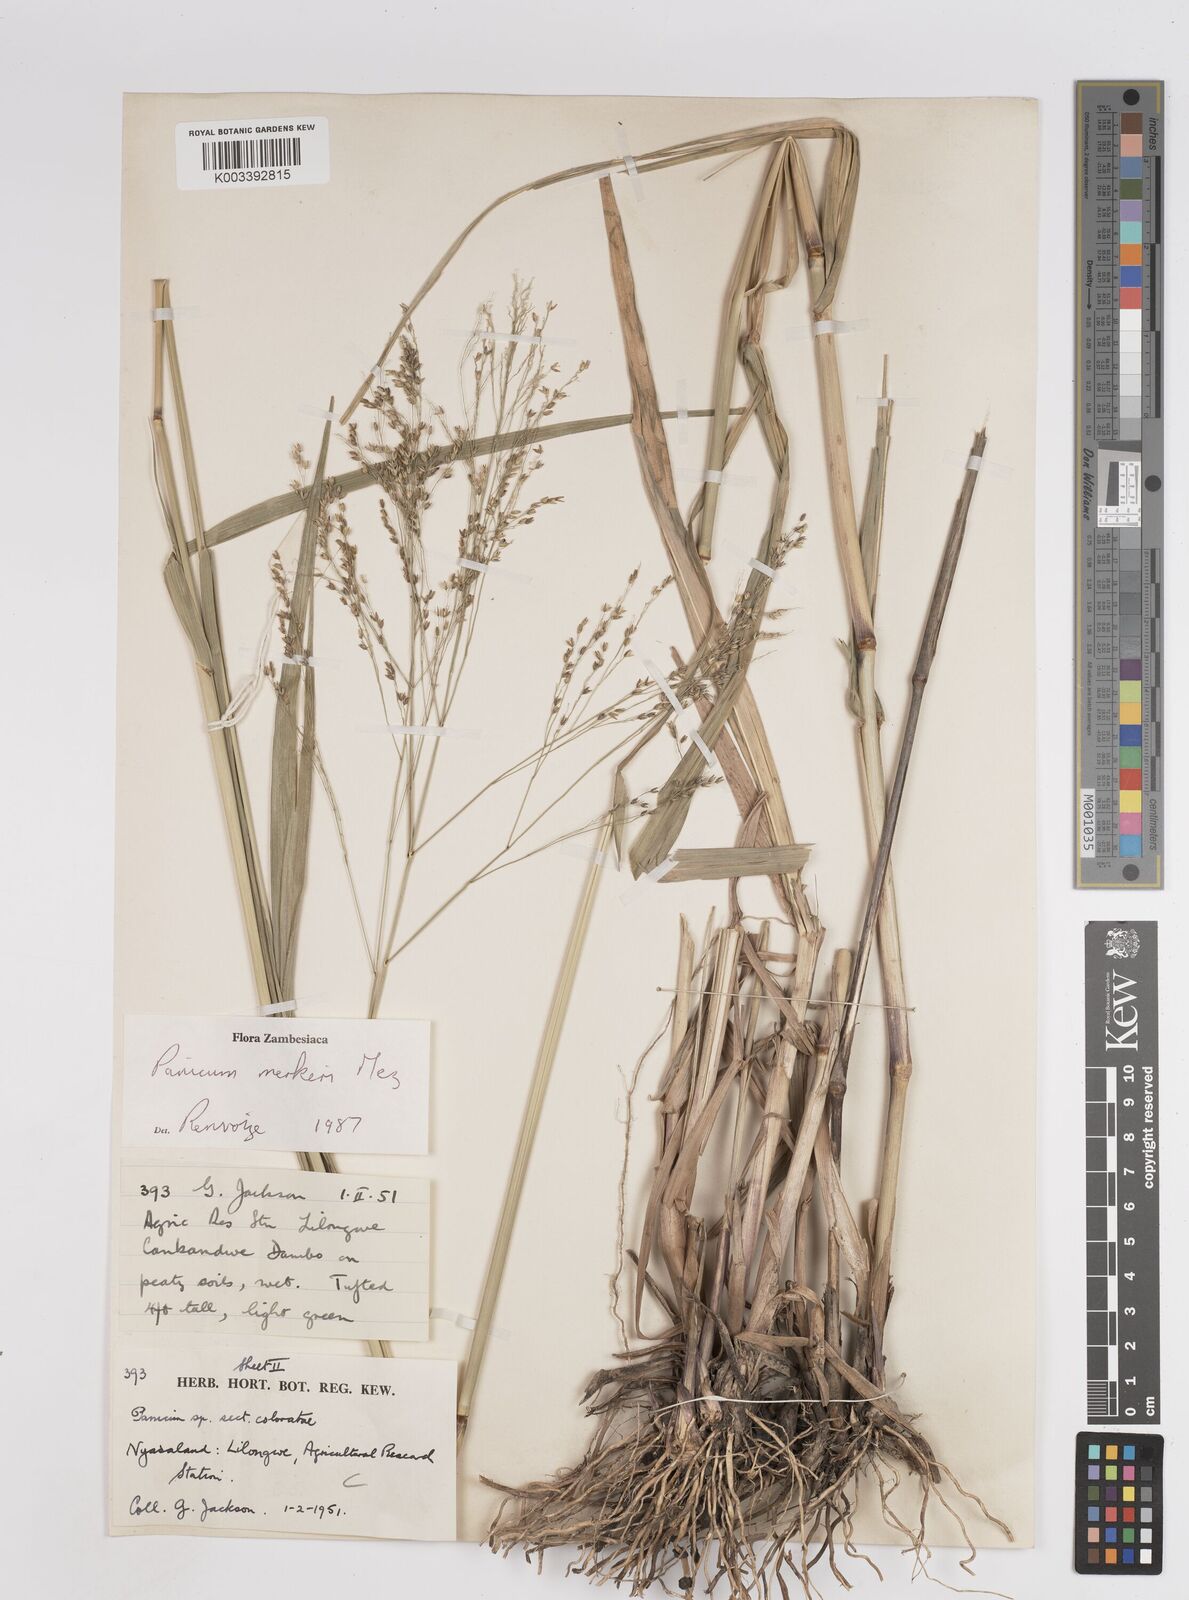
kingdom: Plantae
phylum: Tracheophyta
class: Liliopsida
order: Poales
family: Poaceae
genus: Panicum
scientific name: Panicum merkeri
